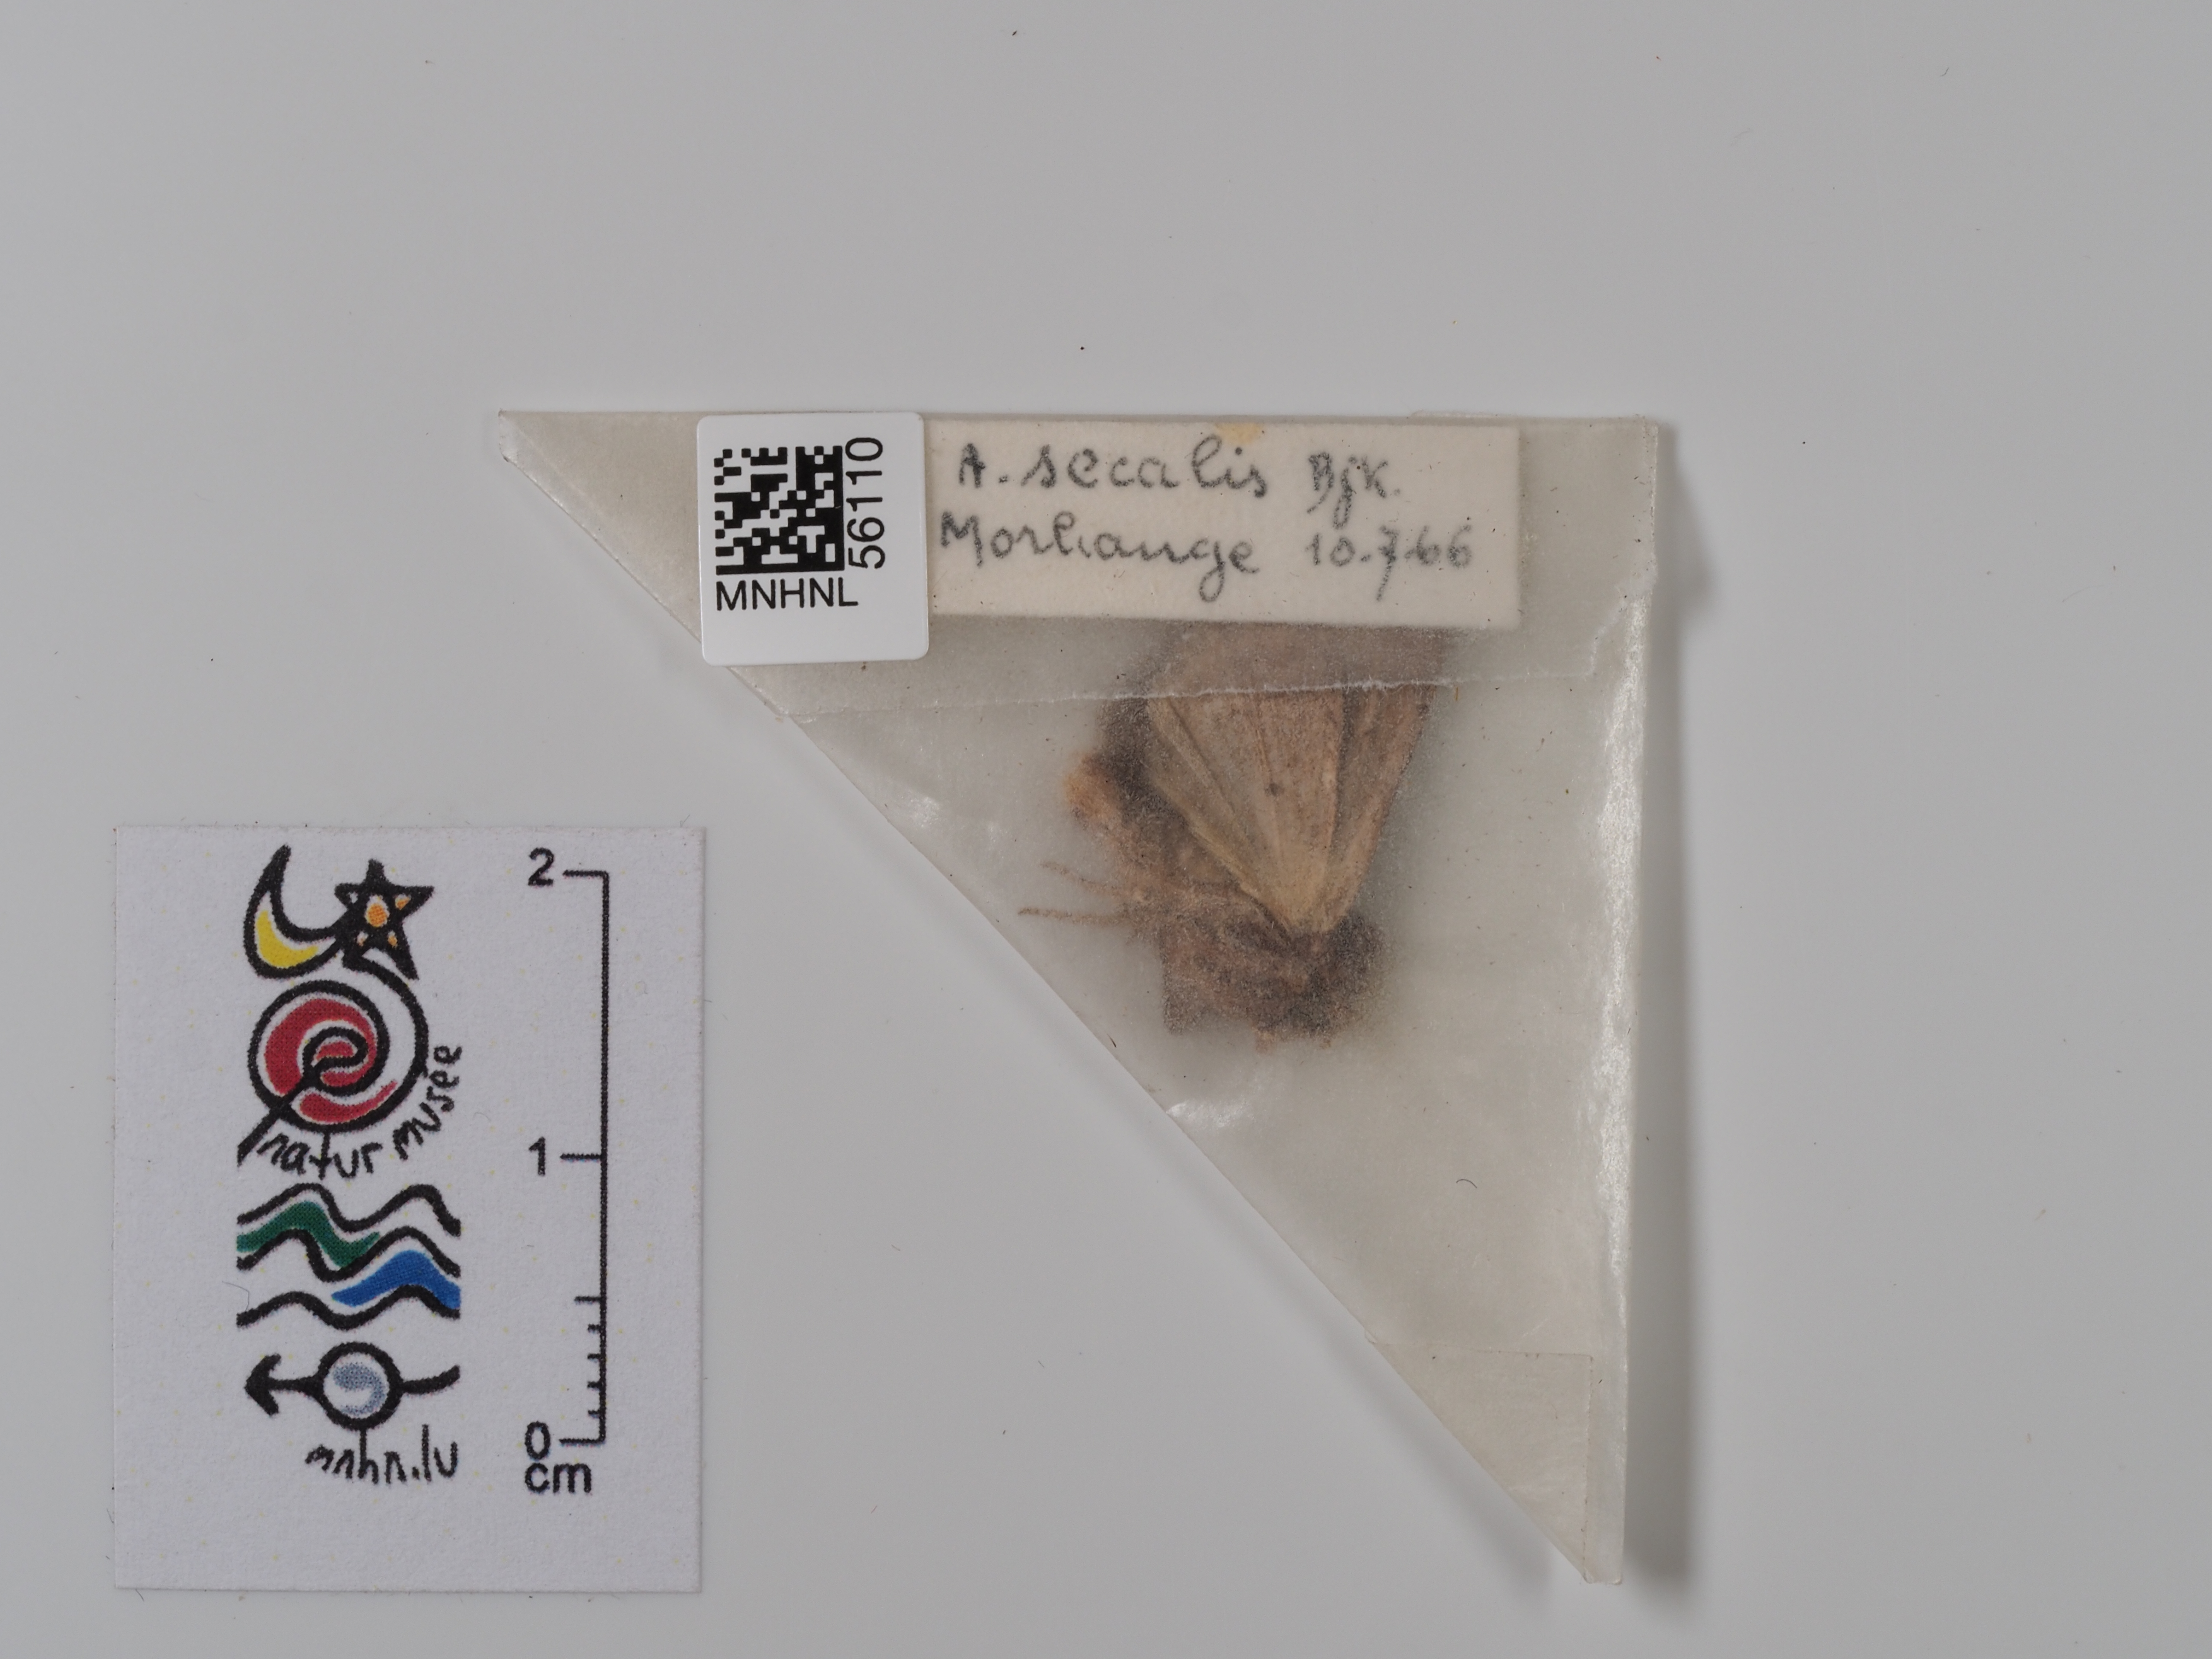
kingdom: Animalia
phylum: Arthropoda
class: Insecta
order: Lepidoptera
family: Noctuidae
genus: Mesapamea
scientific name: Mesapamea secalis
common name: Common rustic
